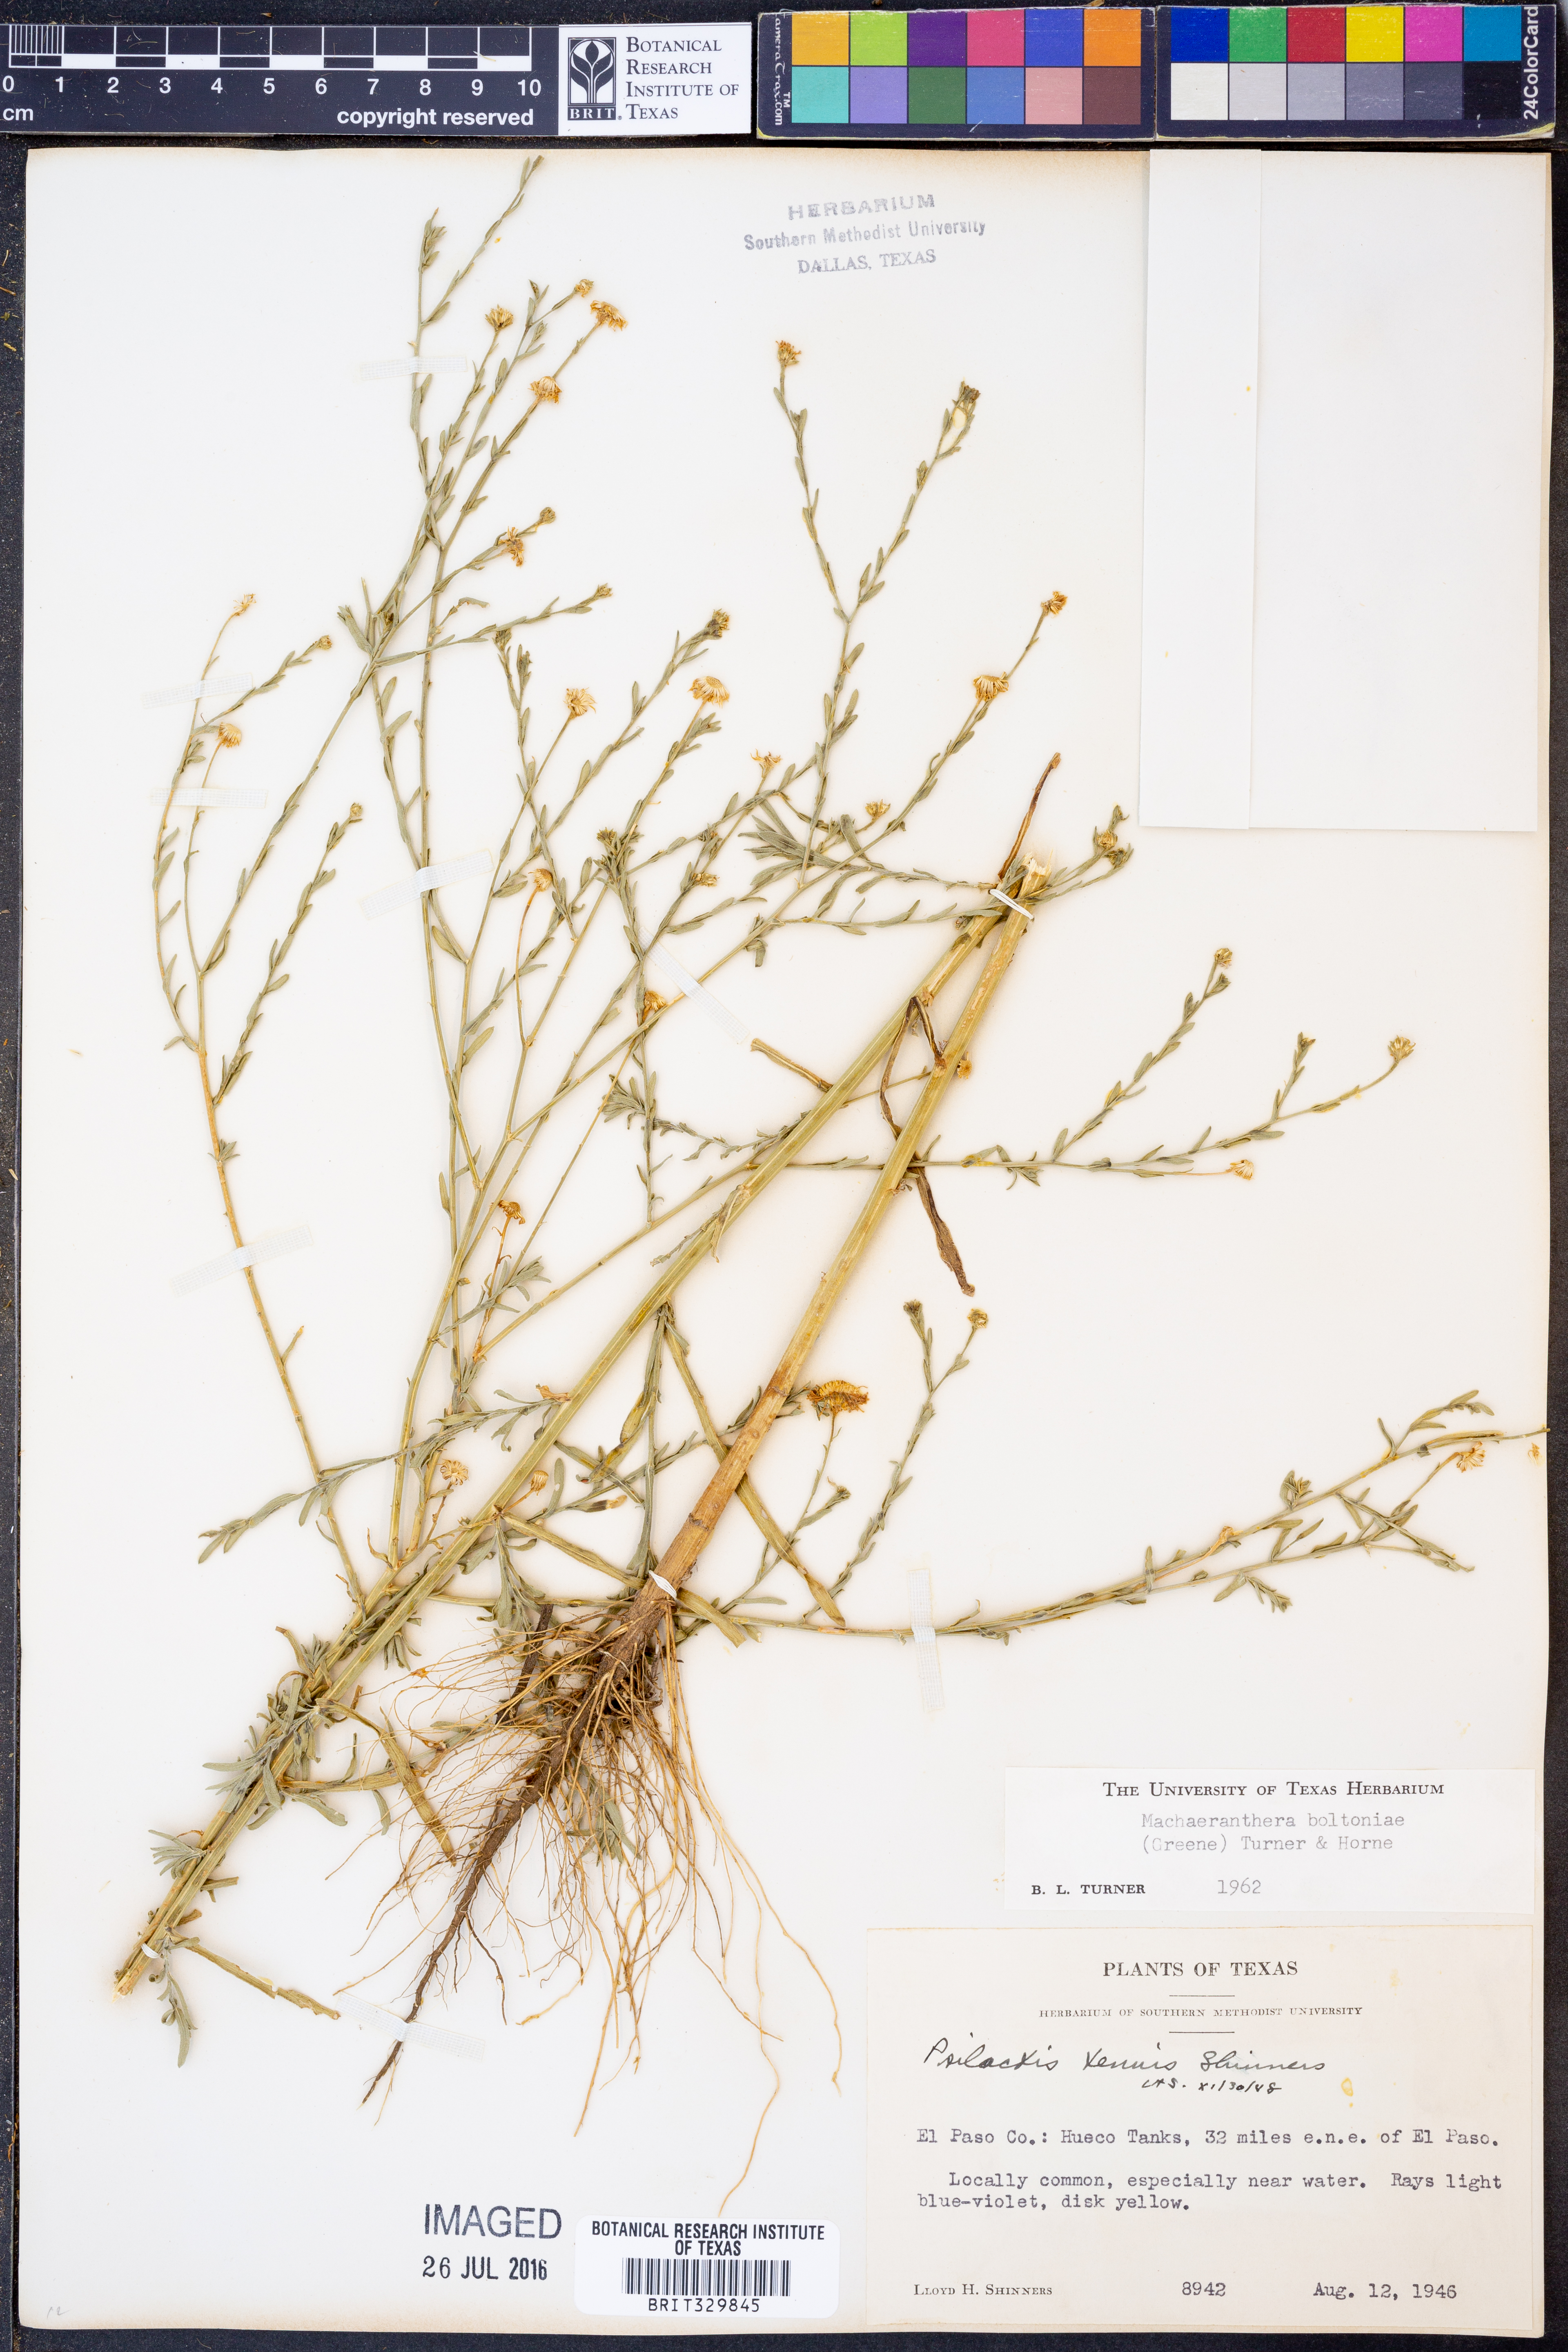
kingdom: Plantae
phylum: Tracheophyta
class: Magnoliopsida
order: Asterales
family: Asteraceae
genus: Psilactis
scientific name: Psilactis asteroides
